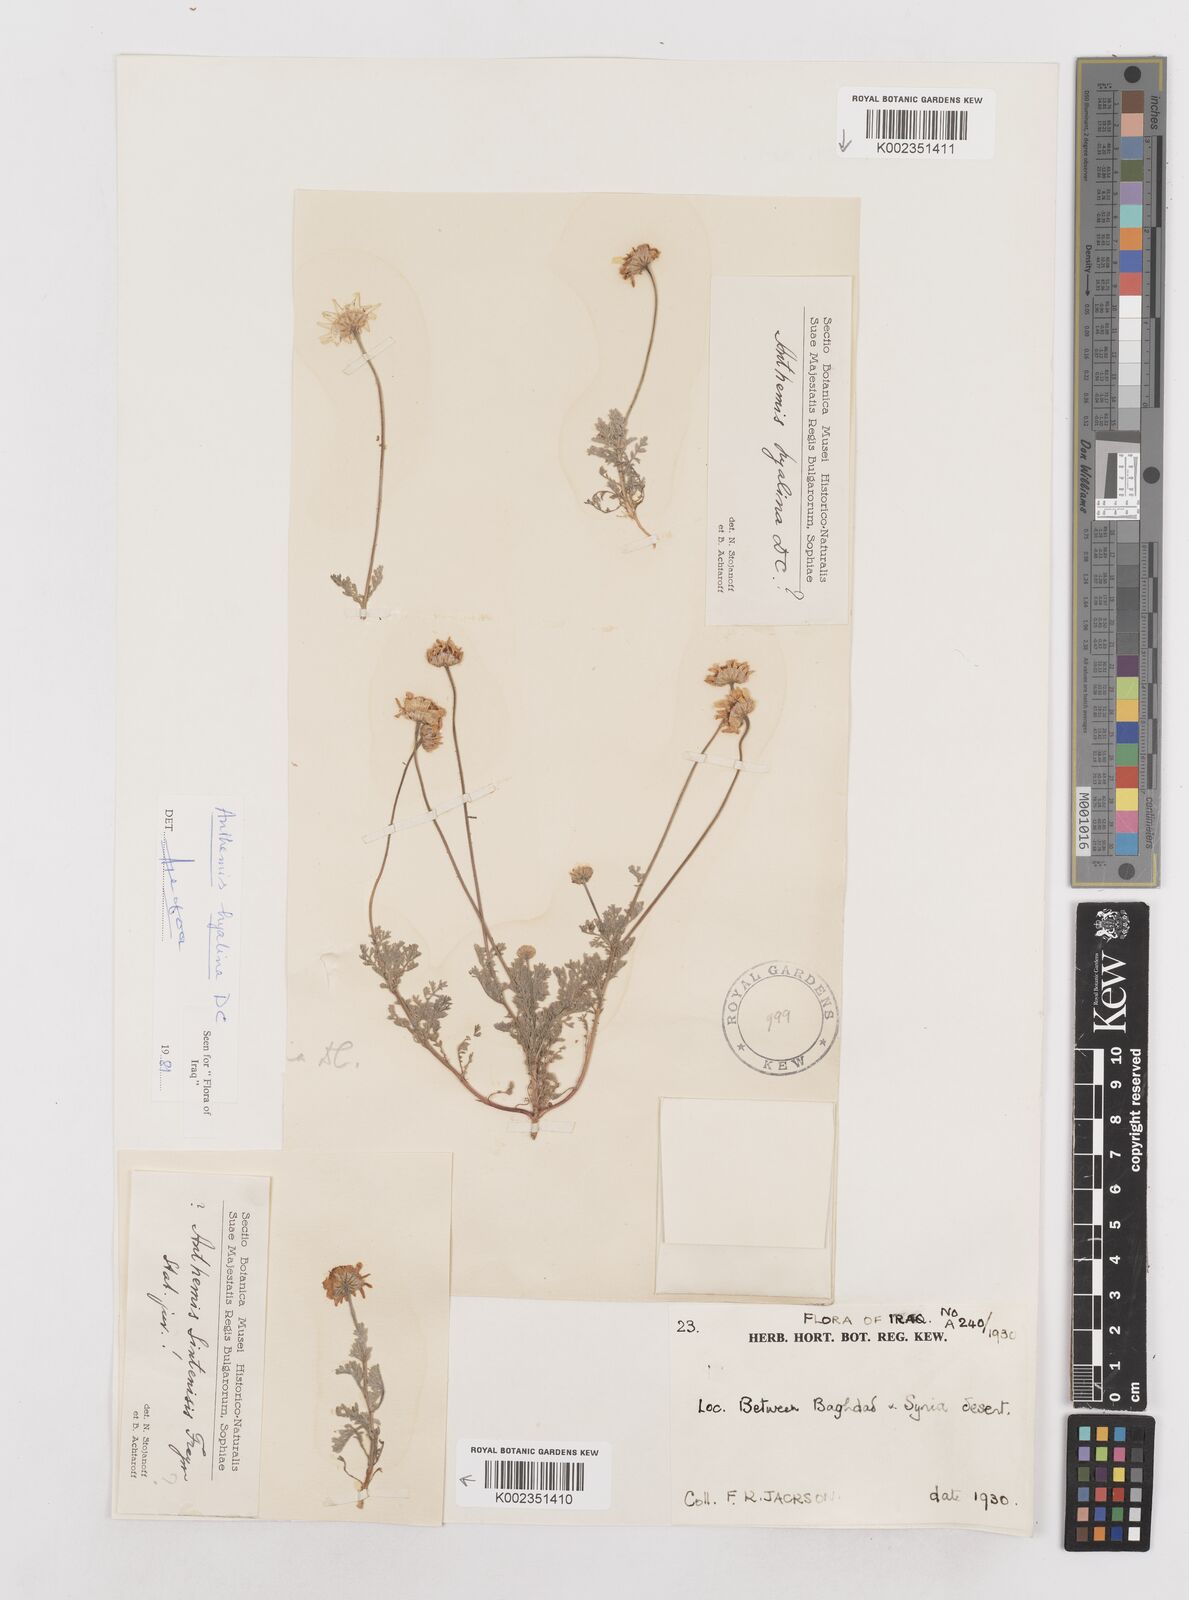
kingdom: Plantae
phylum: Tracheophyta
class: Magnoliopsida
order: Asterales
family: Asteraceae
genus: Anthemis
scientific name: Anthemis hyalina
